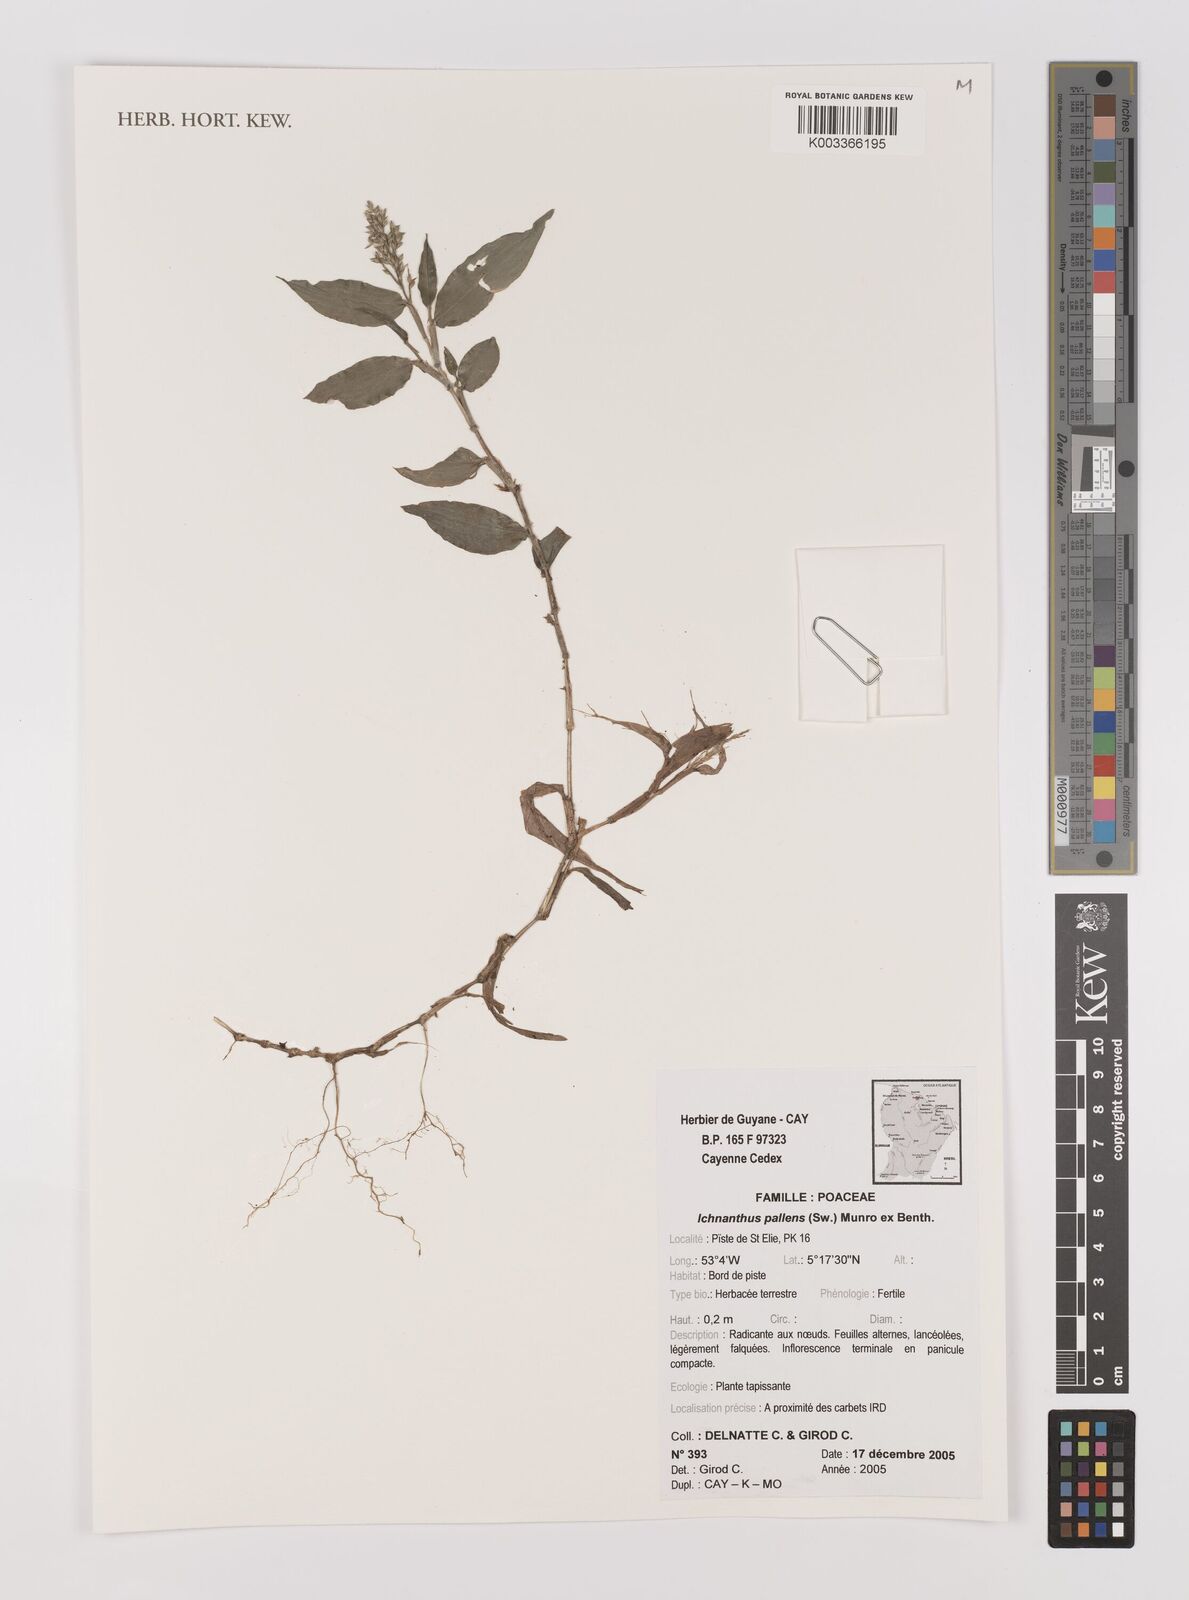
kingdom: Plantae
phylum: Tracheophyta
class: Liliopsida
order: Poales
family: Poaceae
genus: Ichnanthus
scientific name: Ichnanthus pallens
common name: Water grass
